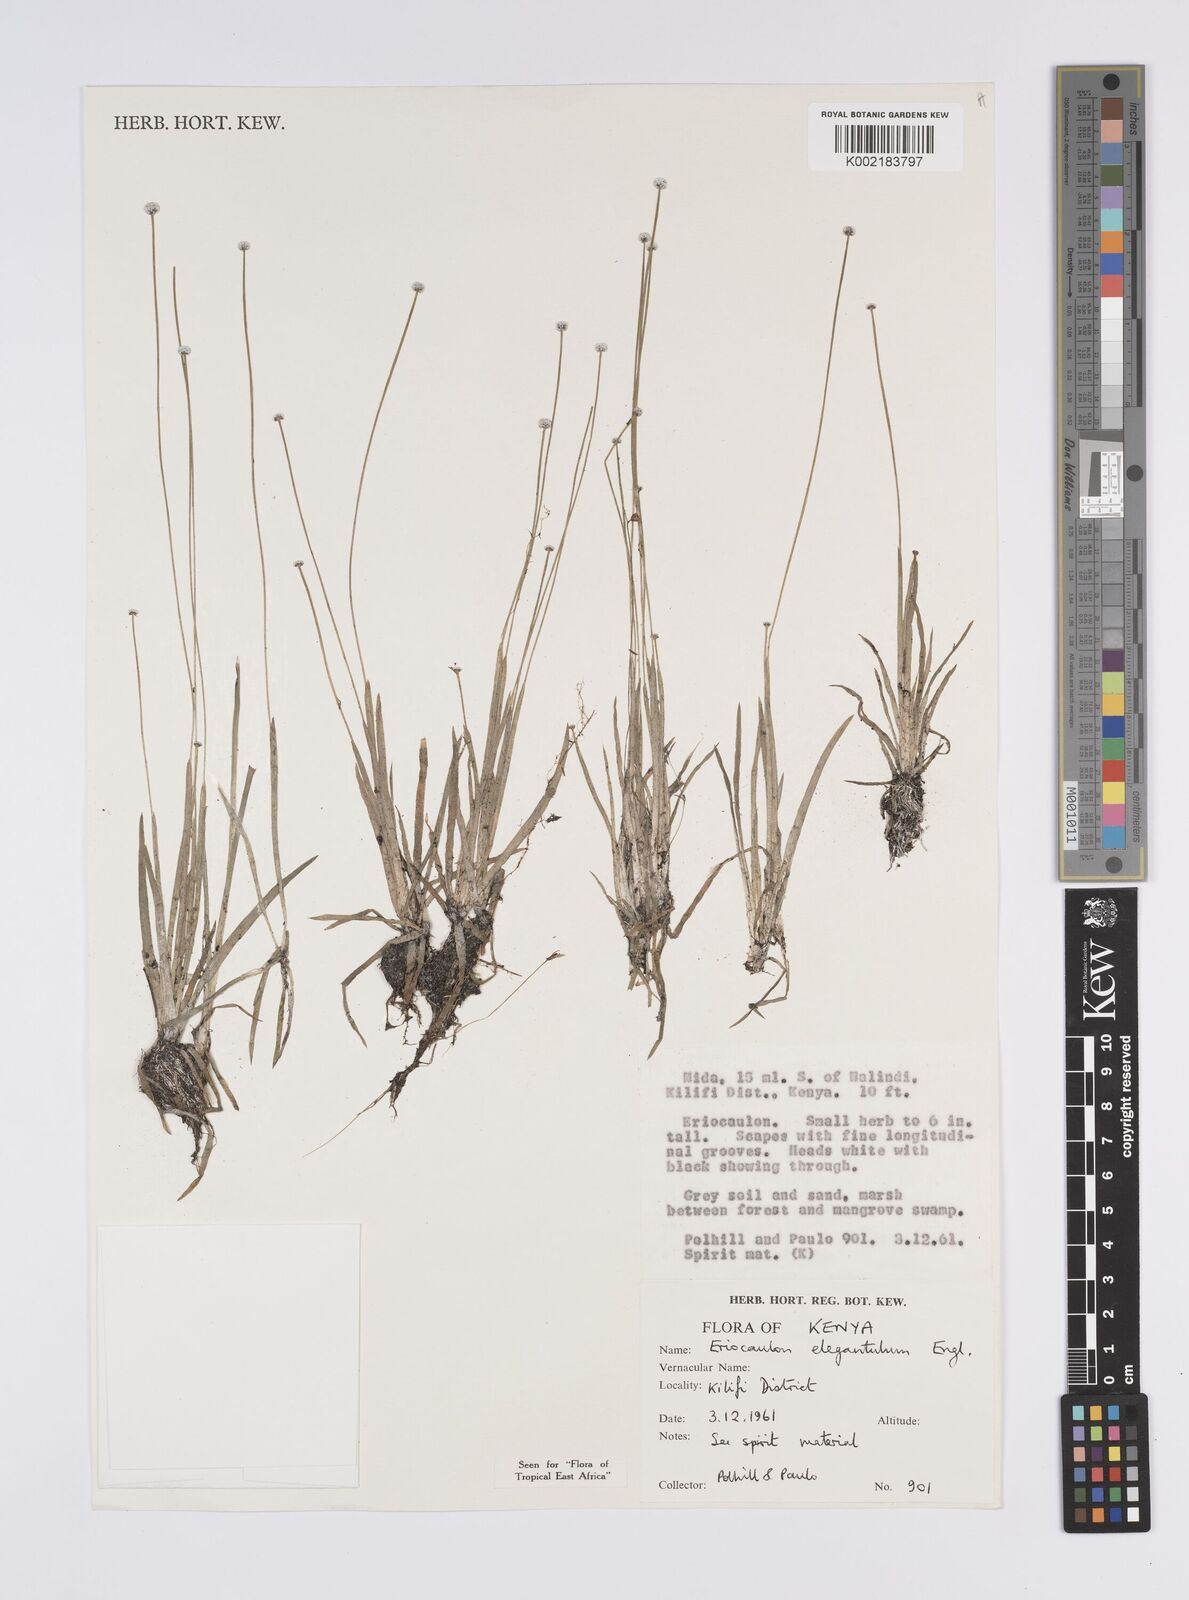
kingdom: Plantae
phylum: Tracheophyta
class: Liliopsida
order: Poales
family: Eriocaulaceae
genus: Eriocaulon
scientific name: Eriocaulon elegantulum
